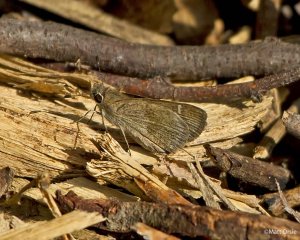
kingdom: Animalia
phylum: Arthropoda
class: Insecta
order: Lepidoptera
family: Hesperiidae
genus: Lerodea
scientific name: Lerodea arabus
